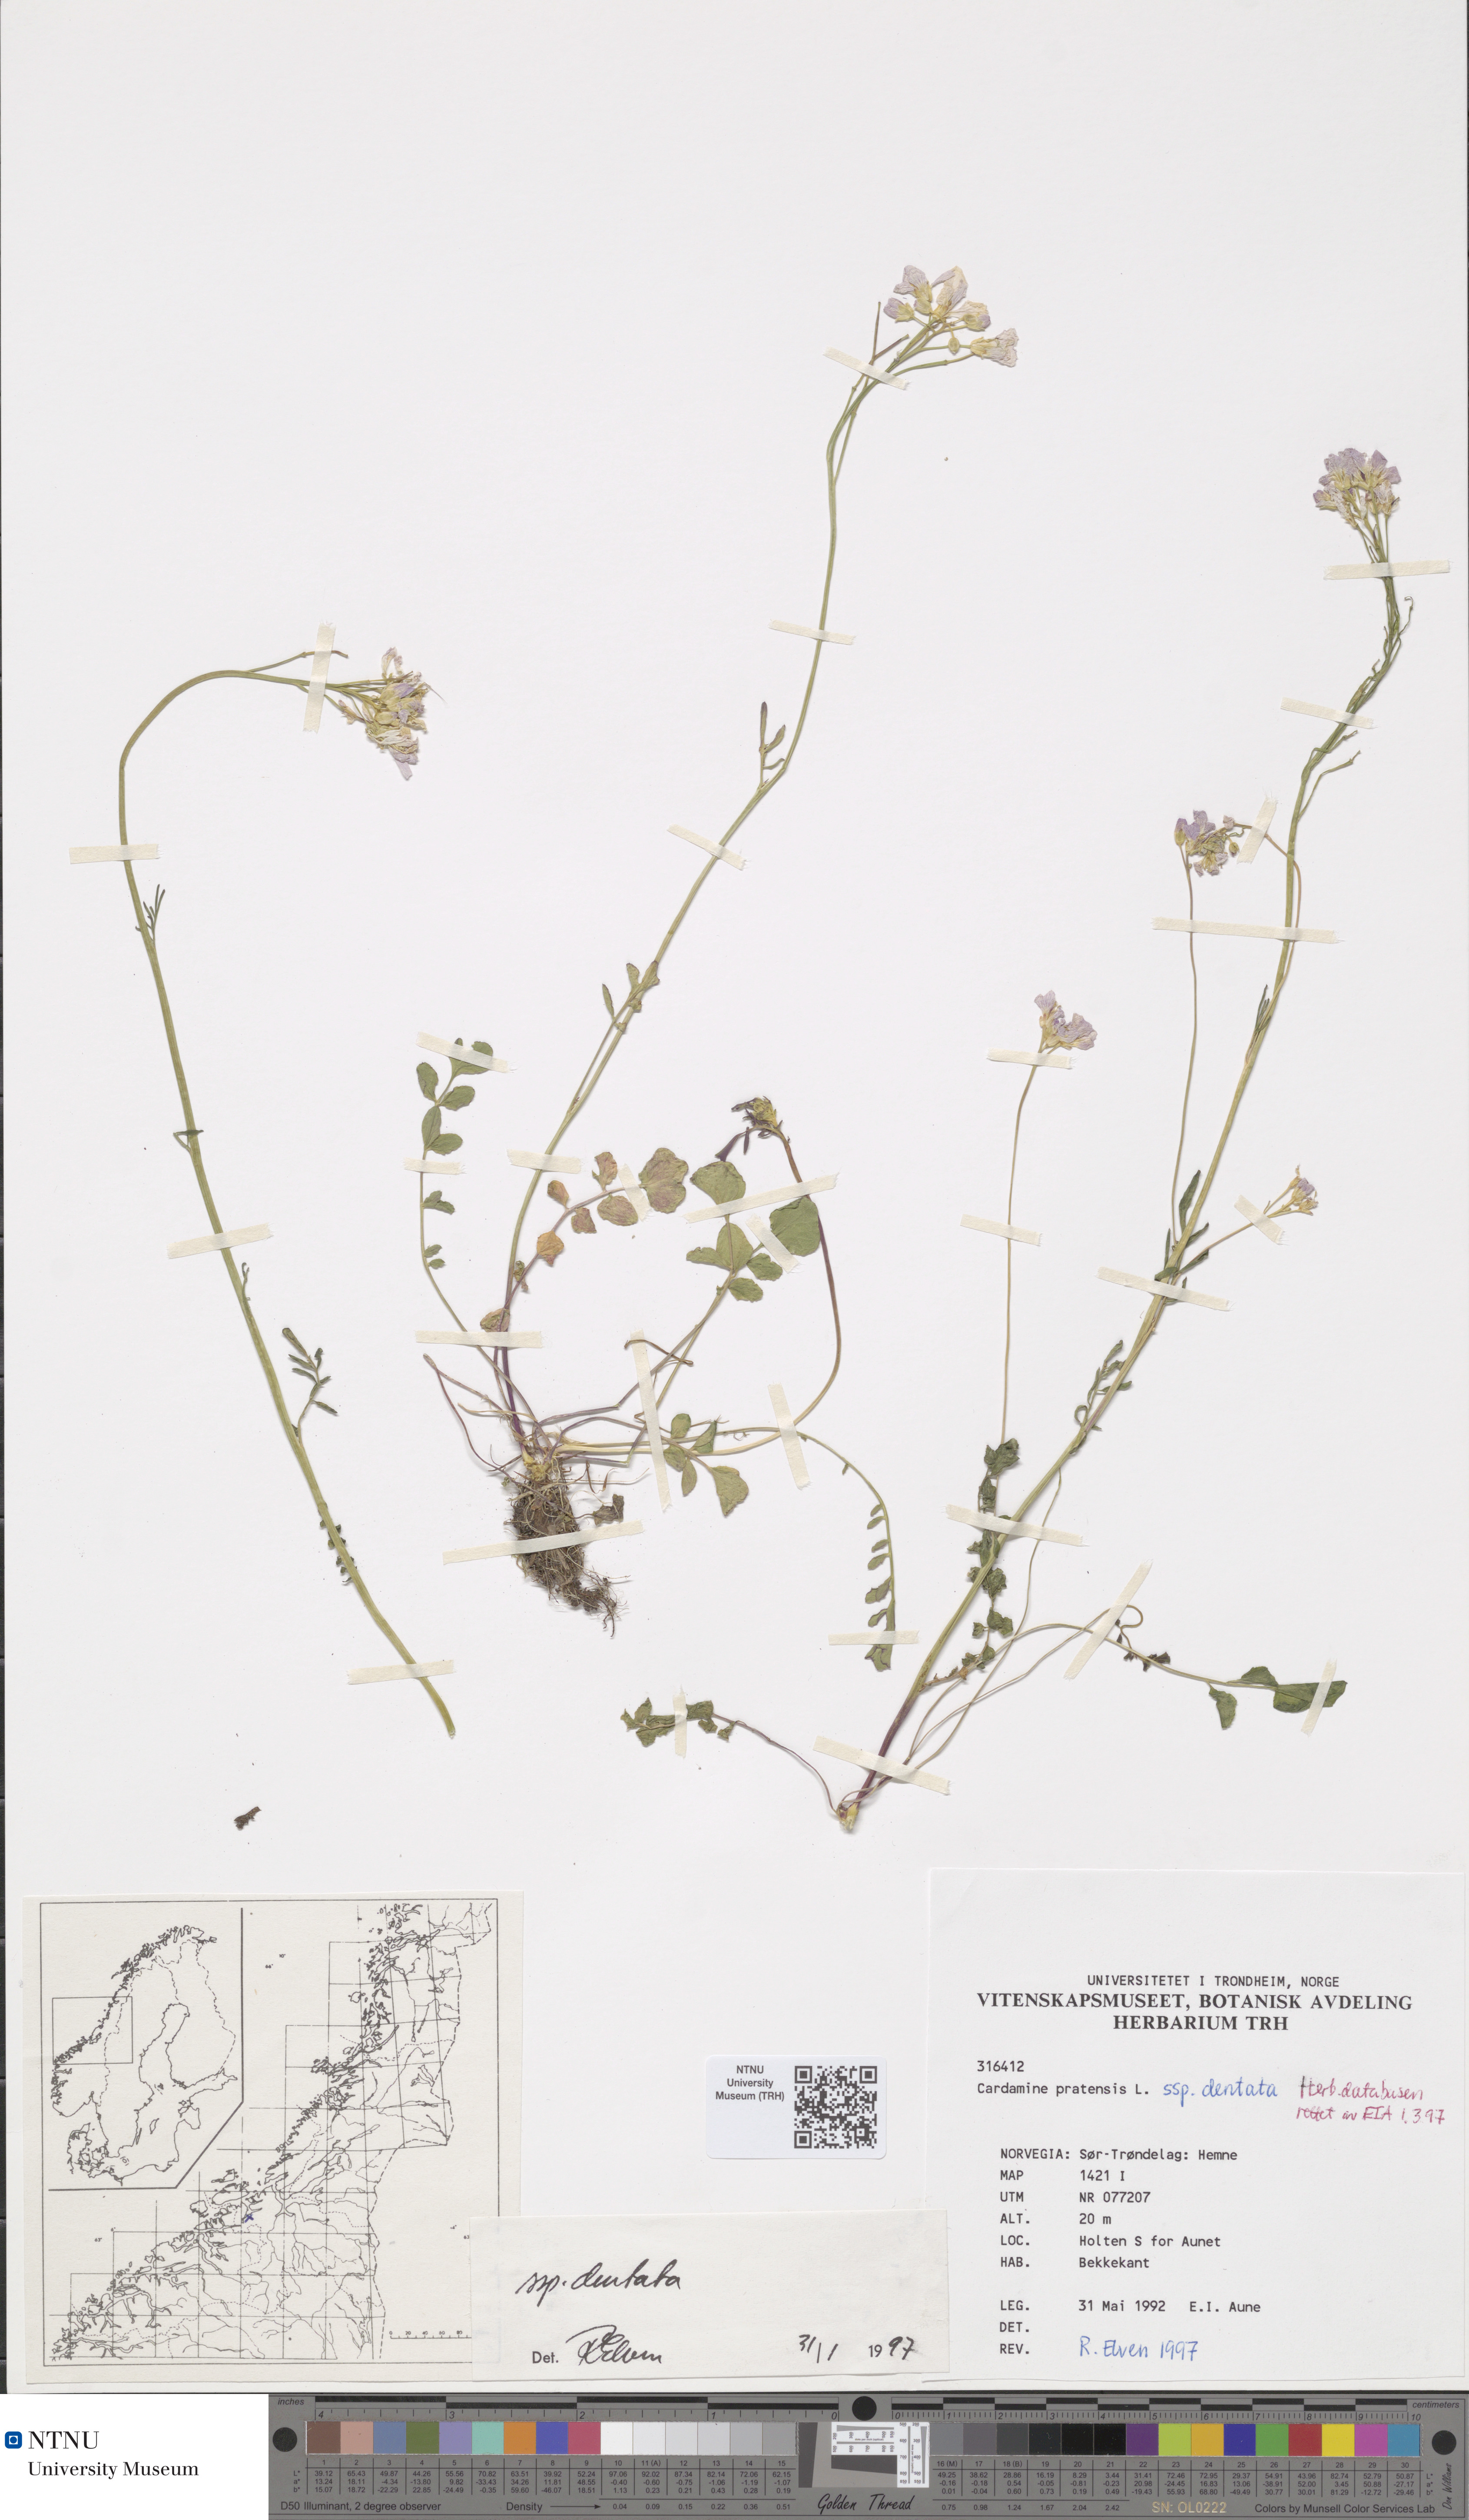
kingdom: Plantae
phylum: Tracheophyta
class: Magnoliopsida
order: Brassicales
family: Brassicaceae
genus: Cardamine
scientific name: Cardamine dentata
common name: Toothed bittercress
